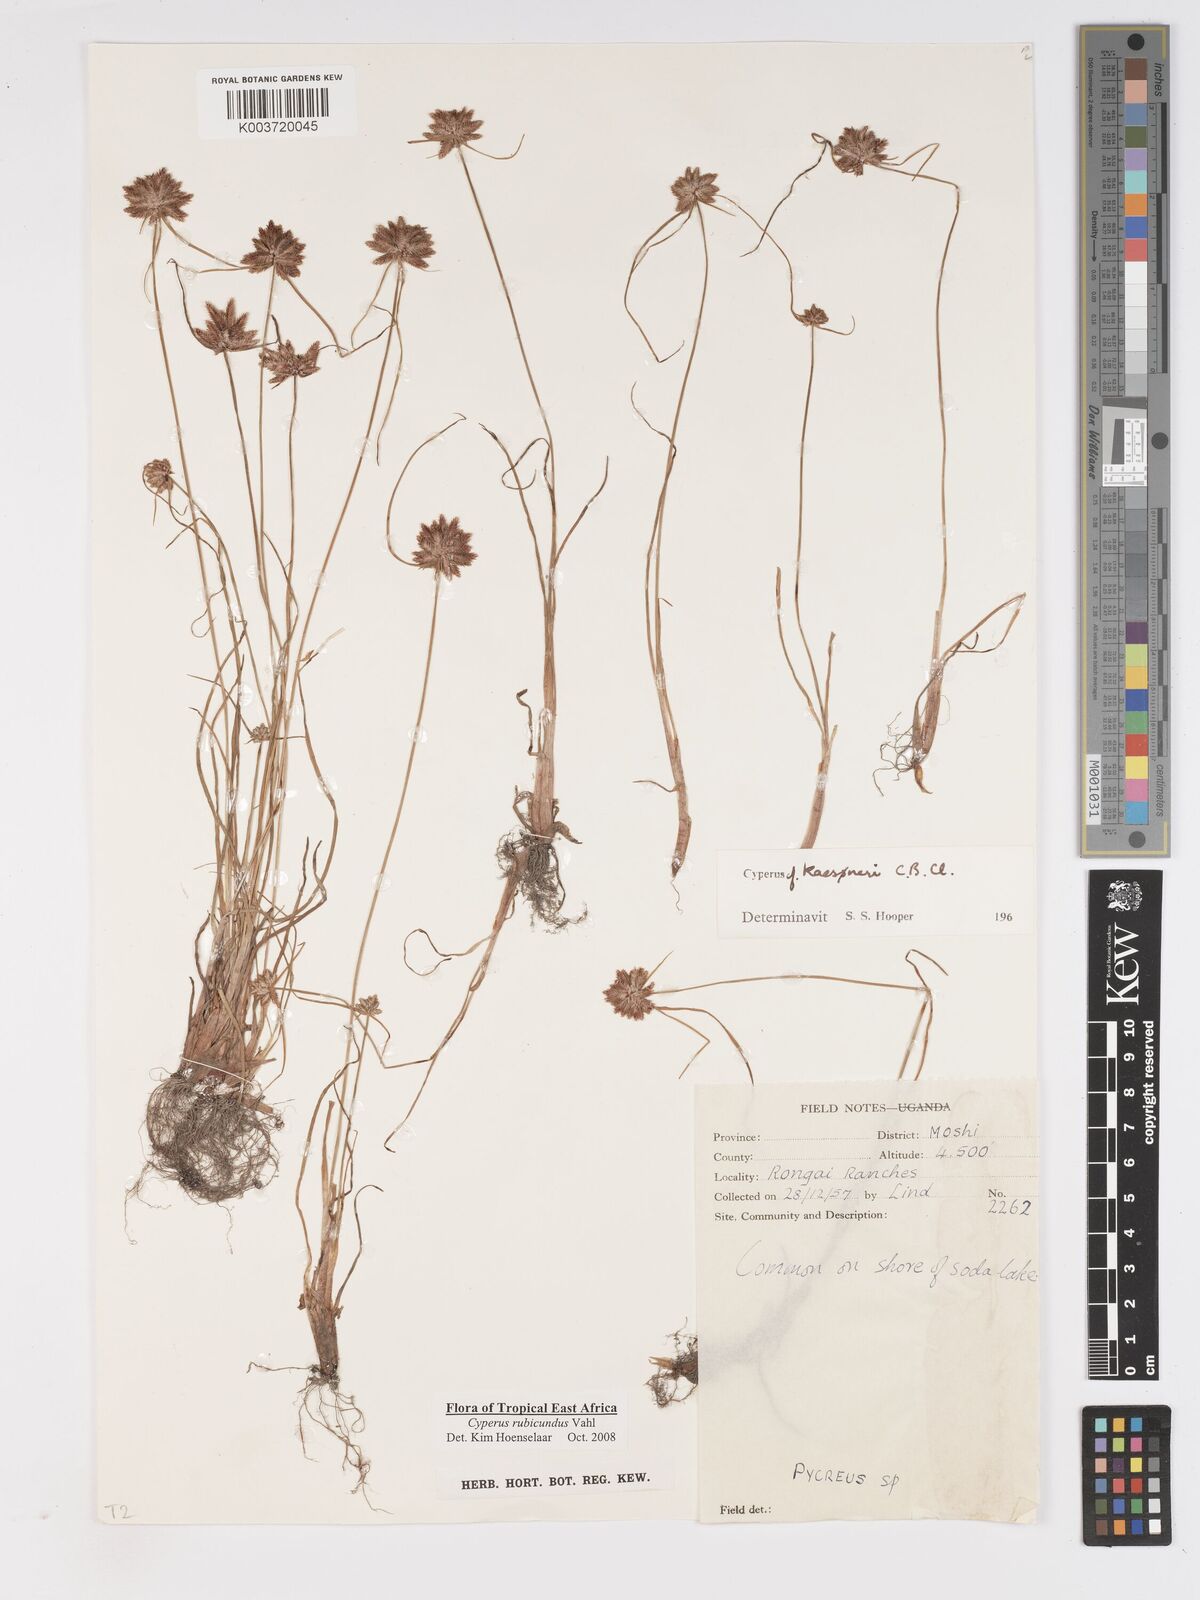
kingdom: Plantae
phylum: Tracheophyta
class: Liliopsida
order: Poales
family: Cyperaceae
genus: Cyperus
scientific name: Cyperus rubicundus
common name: Coco-grass
